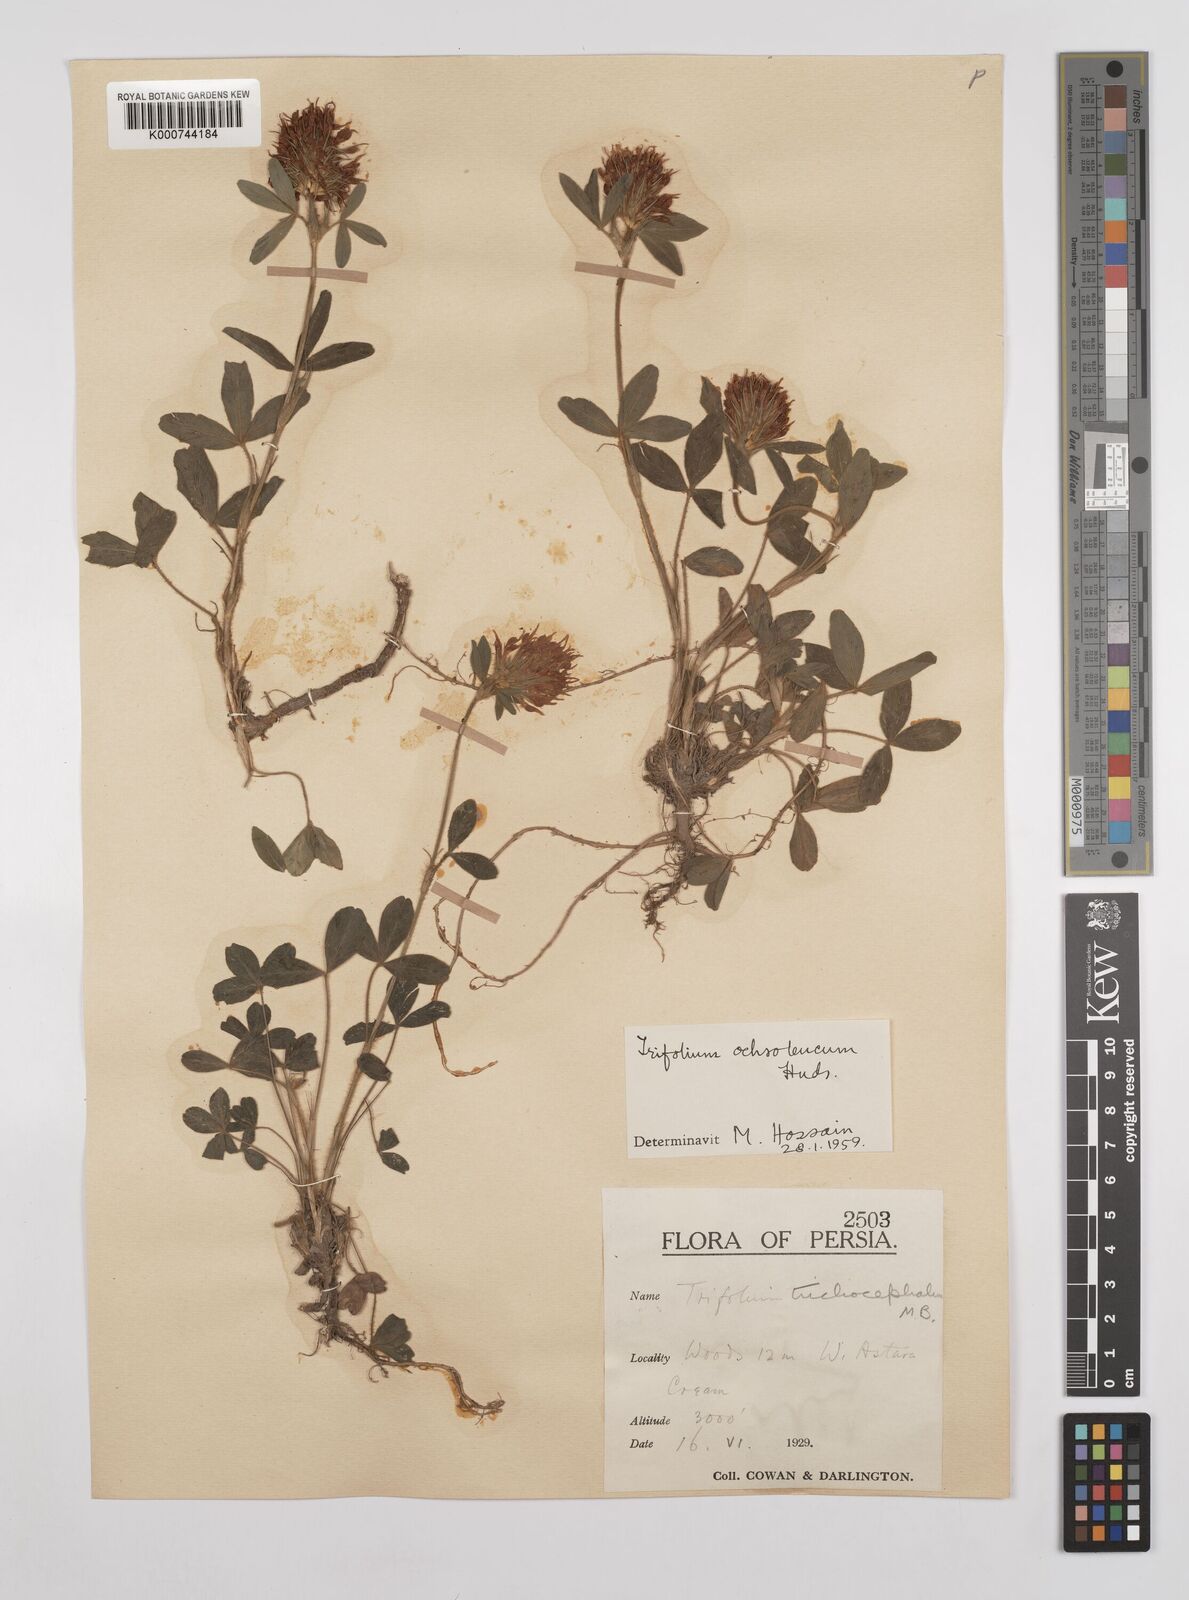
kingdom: Plantae
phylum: Tracheophyta
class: Magnoliopsida
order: Fabales
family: Fabaceae
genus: Trifolium
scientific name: Trifolium
